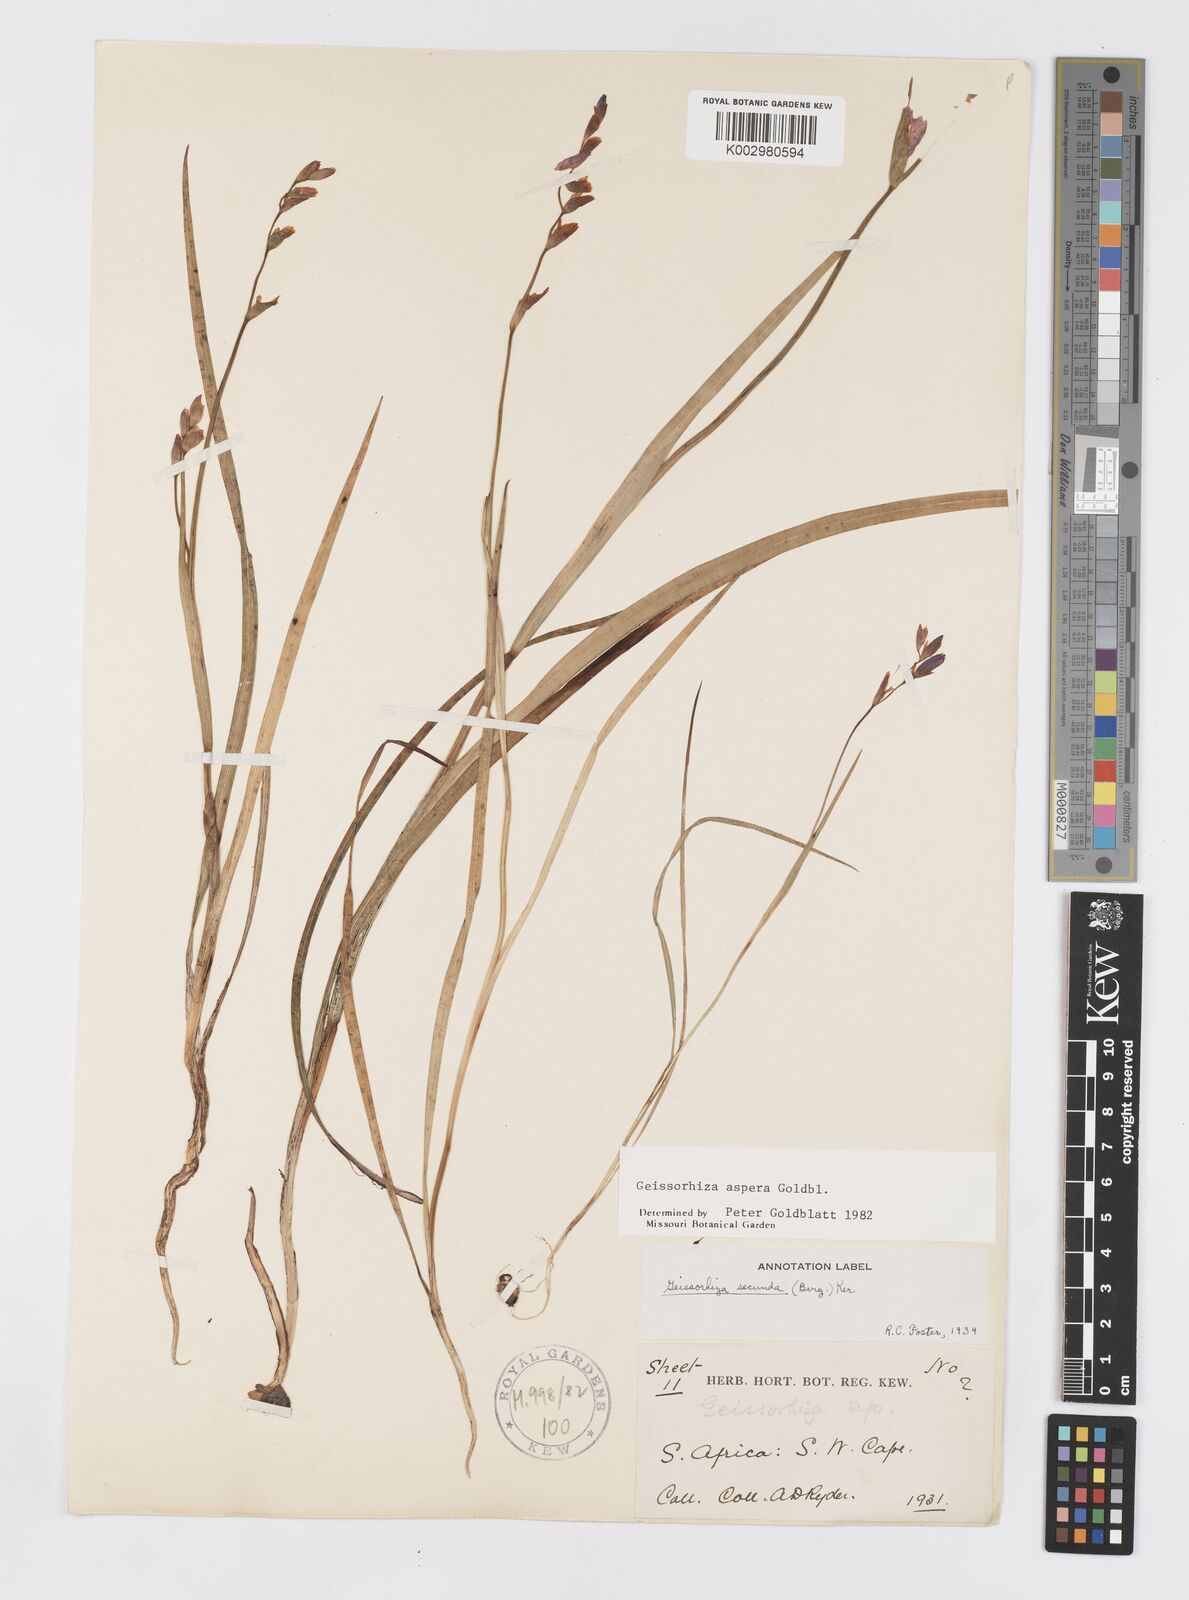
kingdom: Plantae
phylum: Tracheophyta
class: Liliopsida
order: Asparagales
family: Iridaceae
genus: Geissorhiza
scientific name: Geissorhiza aspera
